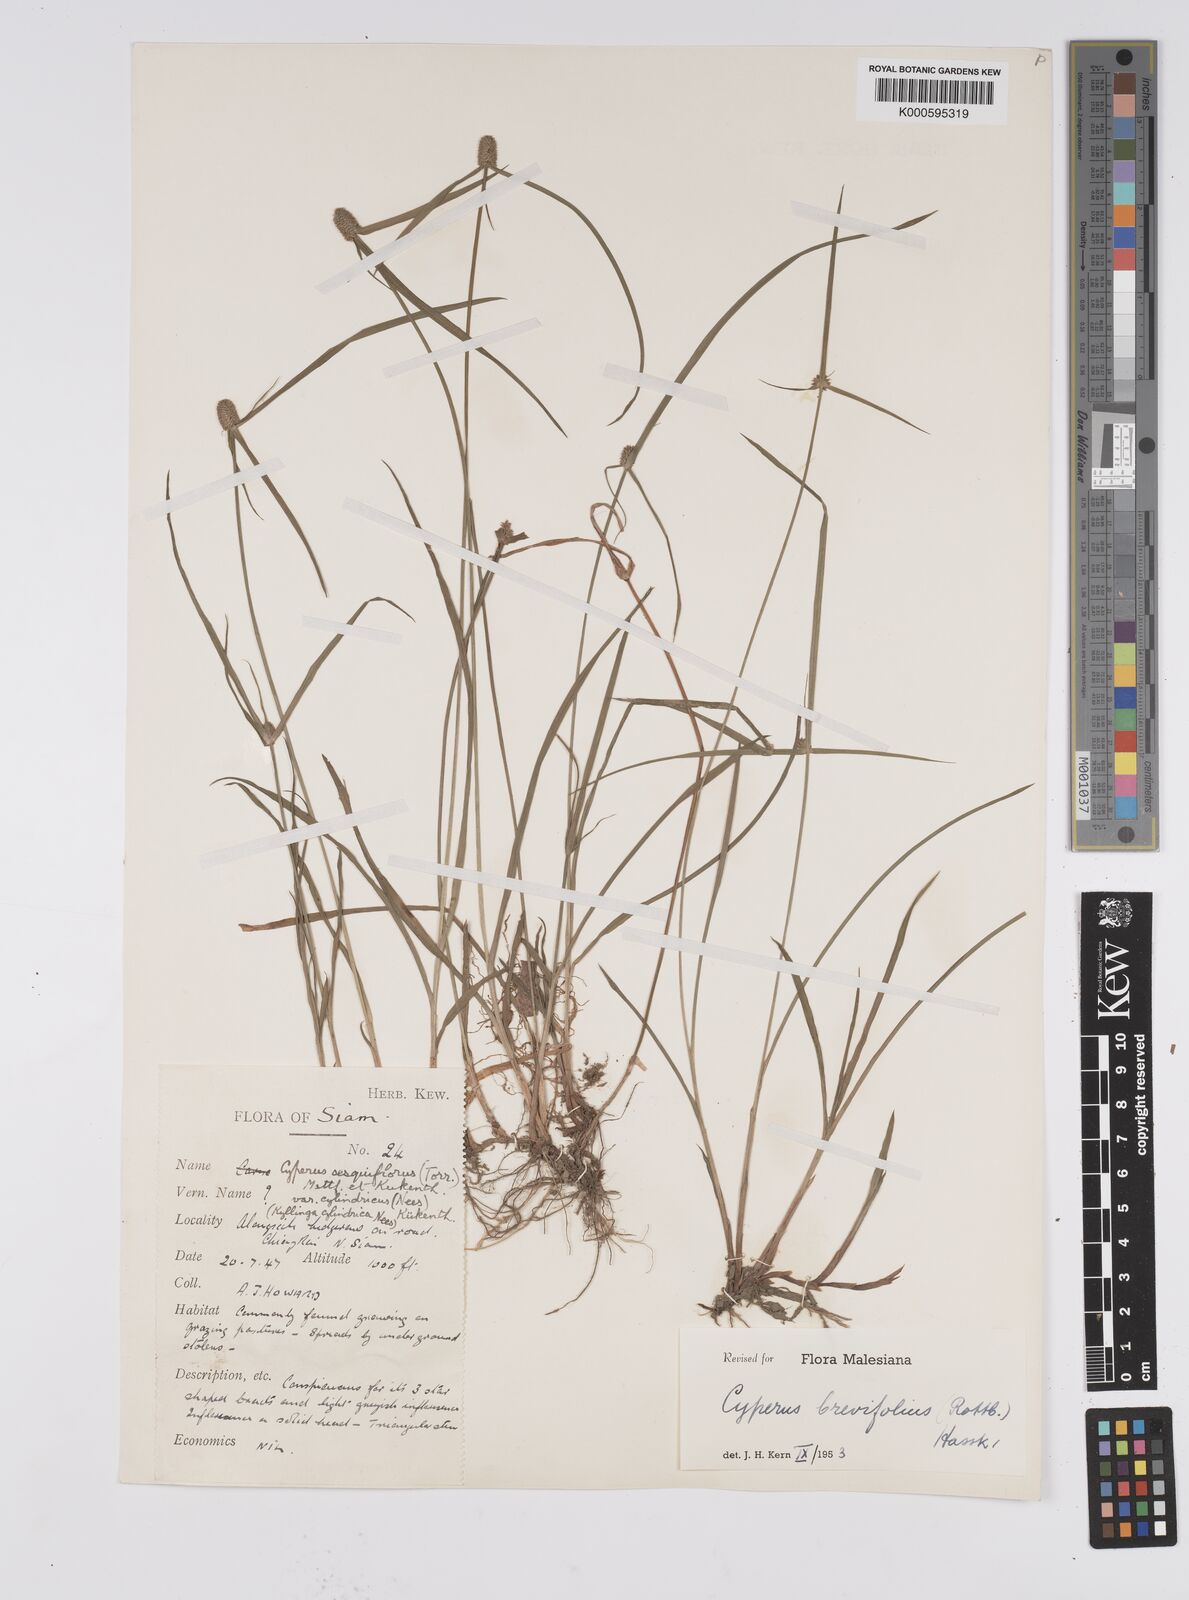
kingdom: Plantae
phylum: Tracheophyta
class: Liliopsida
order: Poales
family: Cyperaceae
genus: Cyperus
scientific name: Cyperus sesquiflorus
